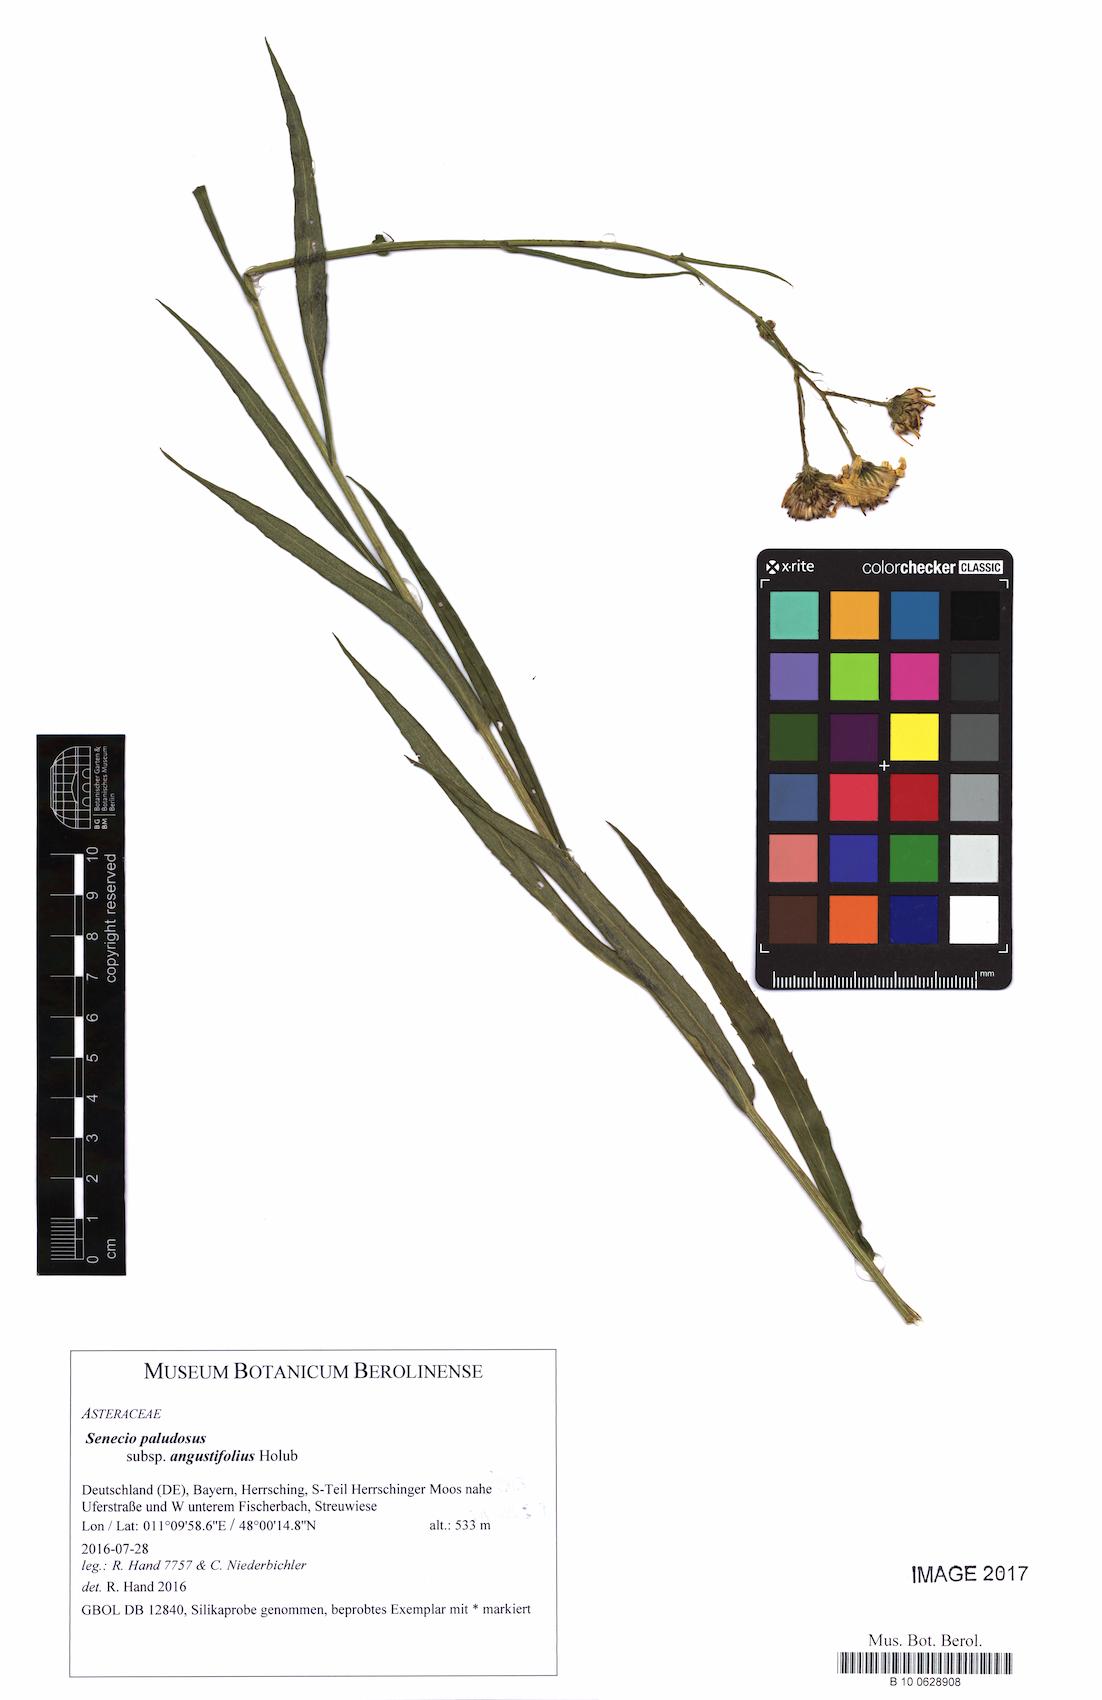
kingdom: Plantae
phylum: Tracheophyta
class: Magnoliopsida
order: Asterales
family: Asteraceae
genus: Jacobaea
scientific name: Jacobaea paludosa
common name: Fen ragwort
